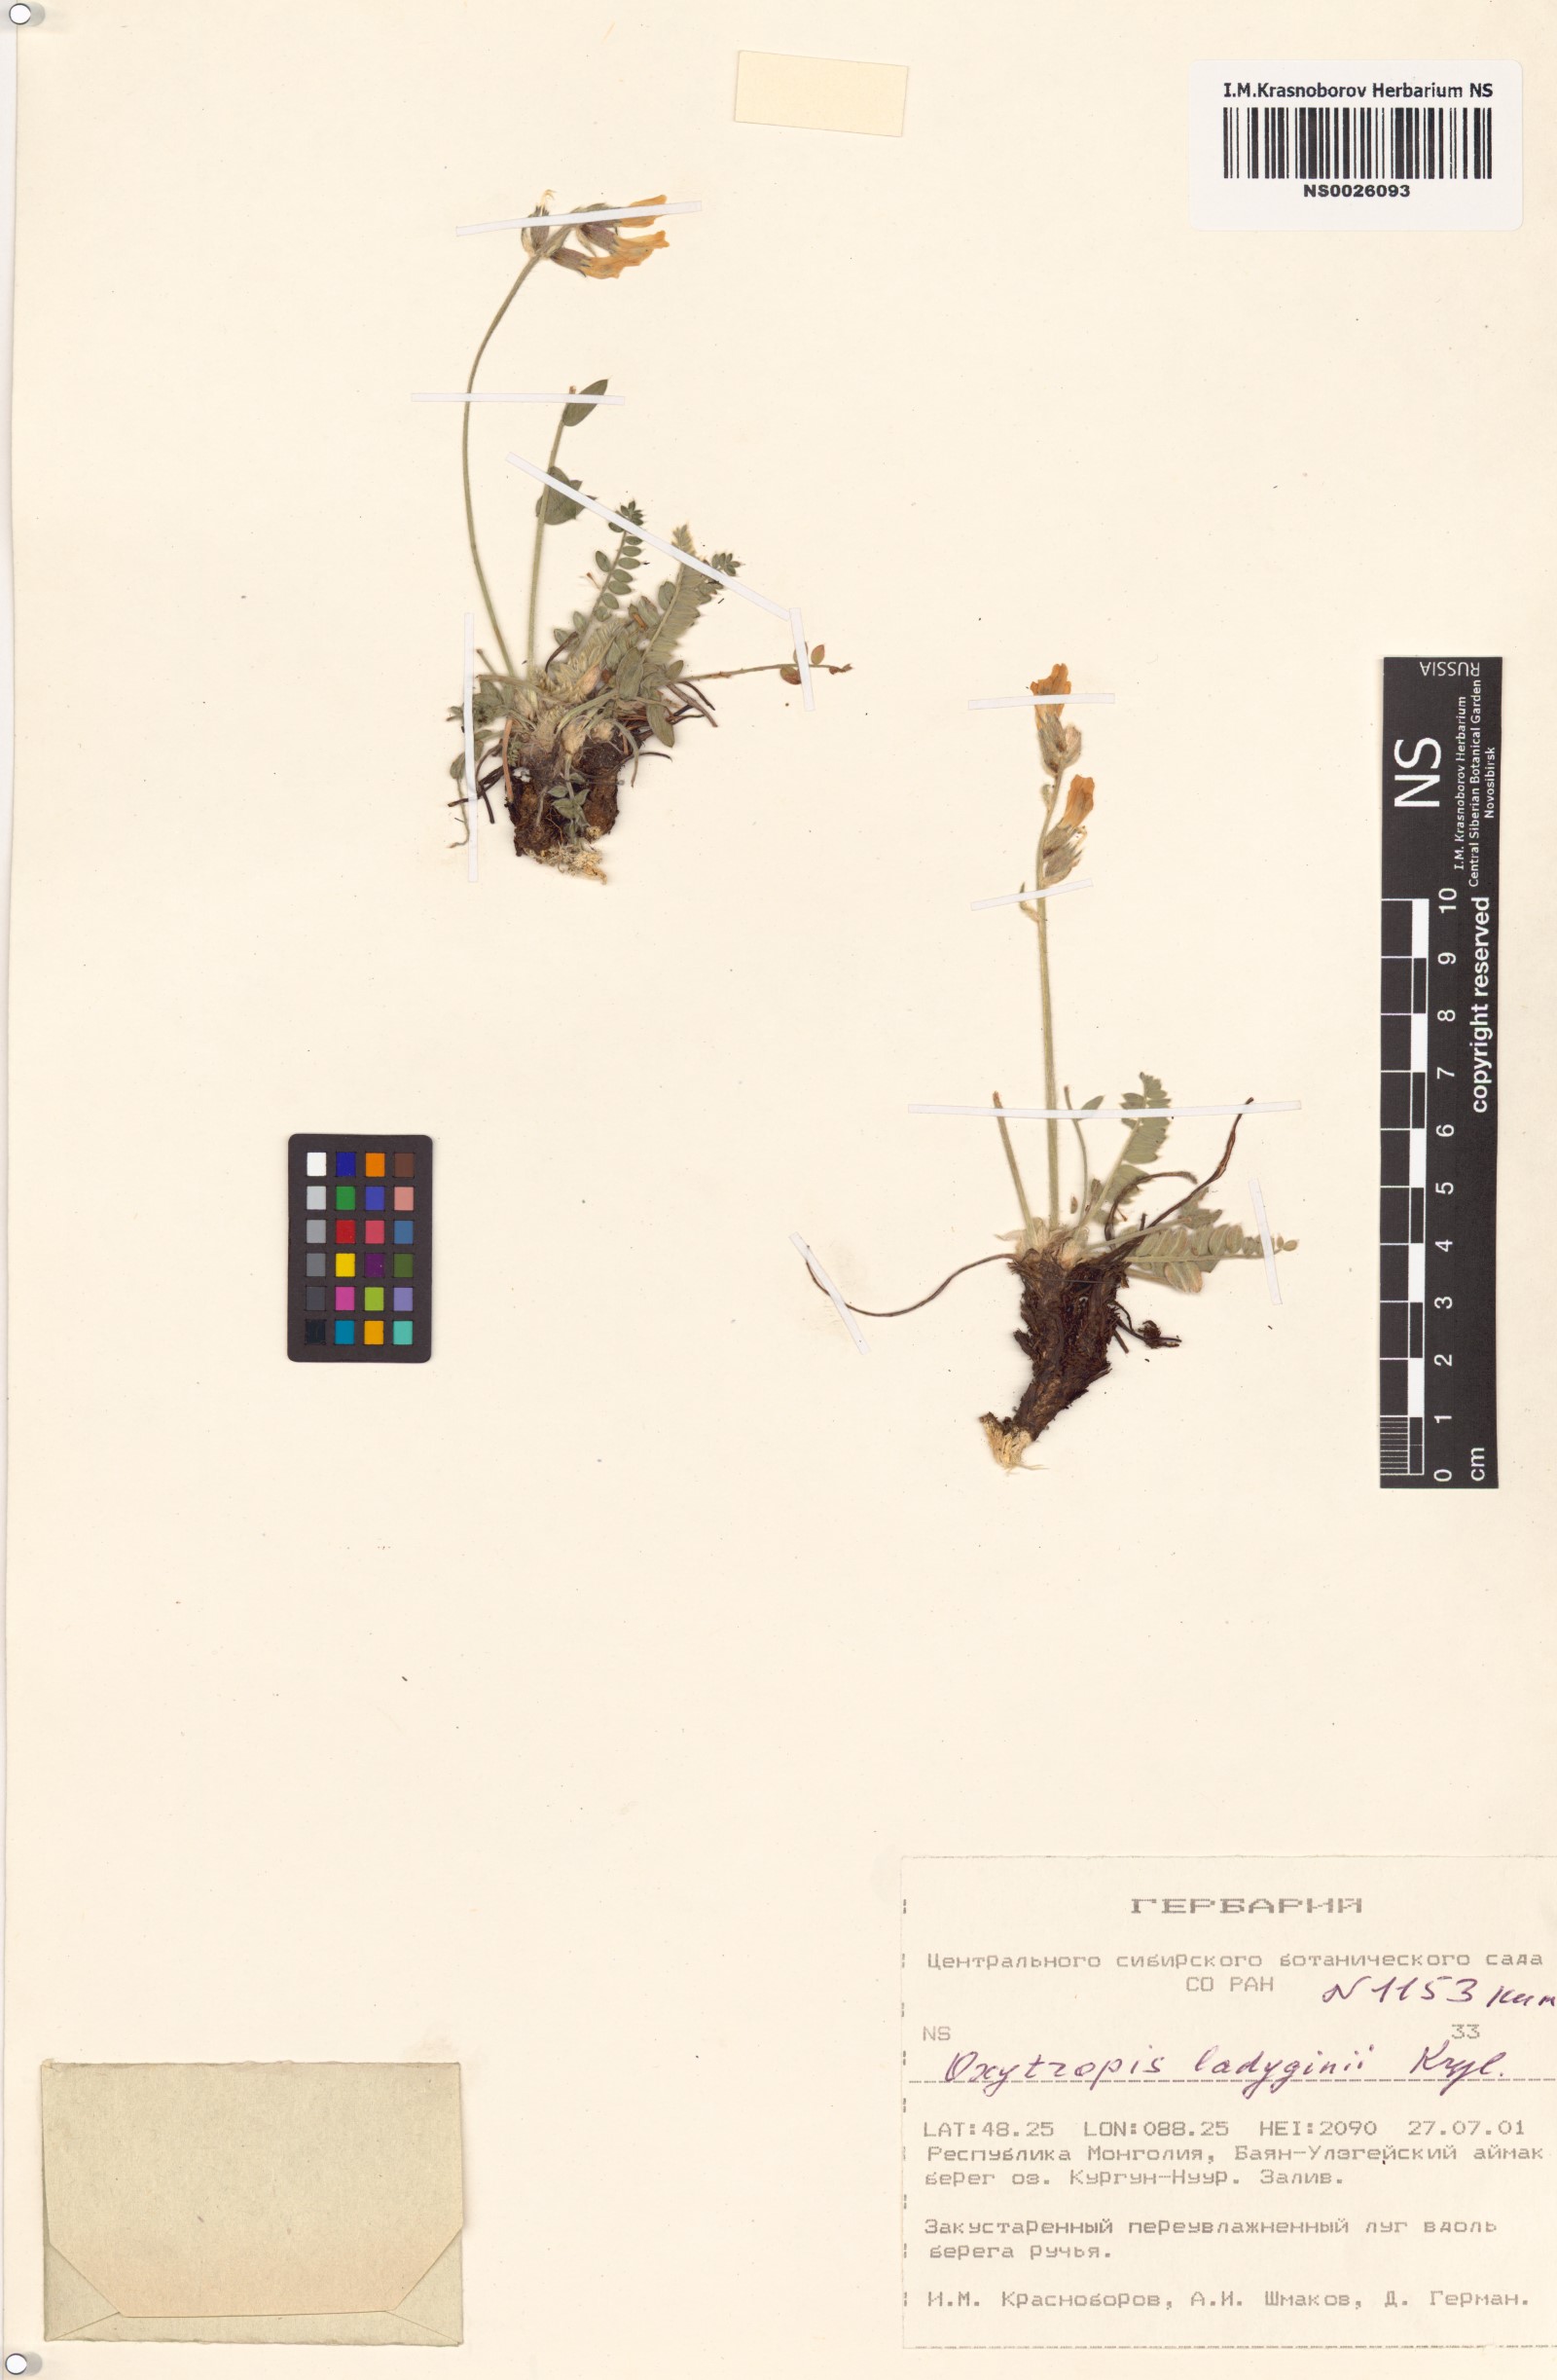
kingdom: Plantae
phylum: Tracheophyta
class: Magnoliopsida
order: Fabales
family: Fabaceae
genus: Oxytropis
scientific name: Oxytropis ladyginii
